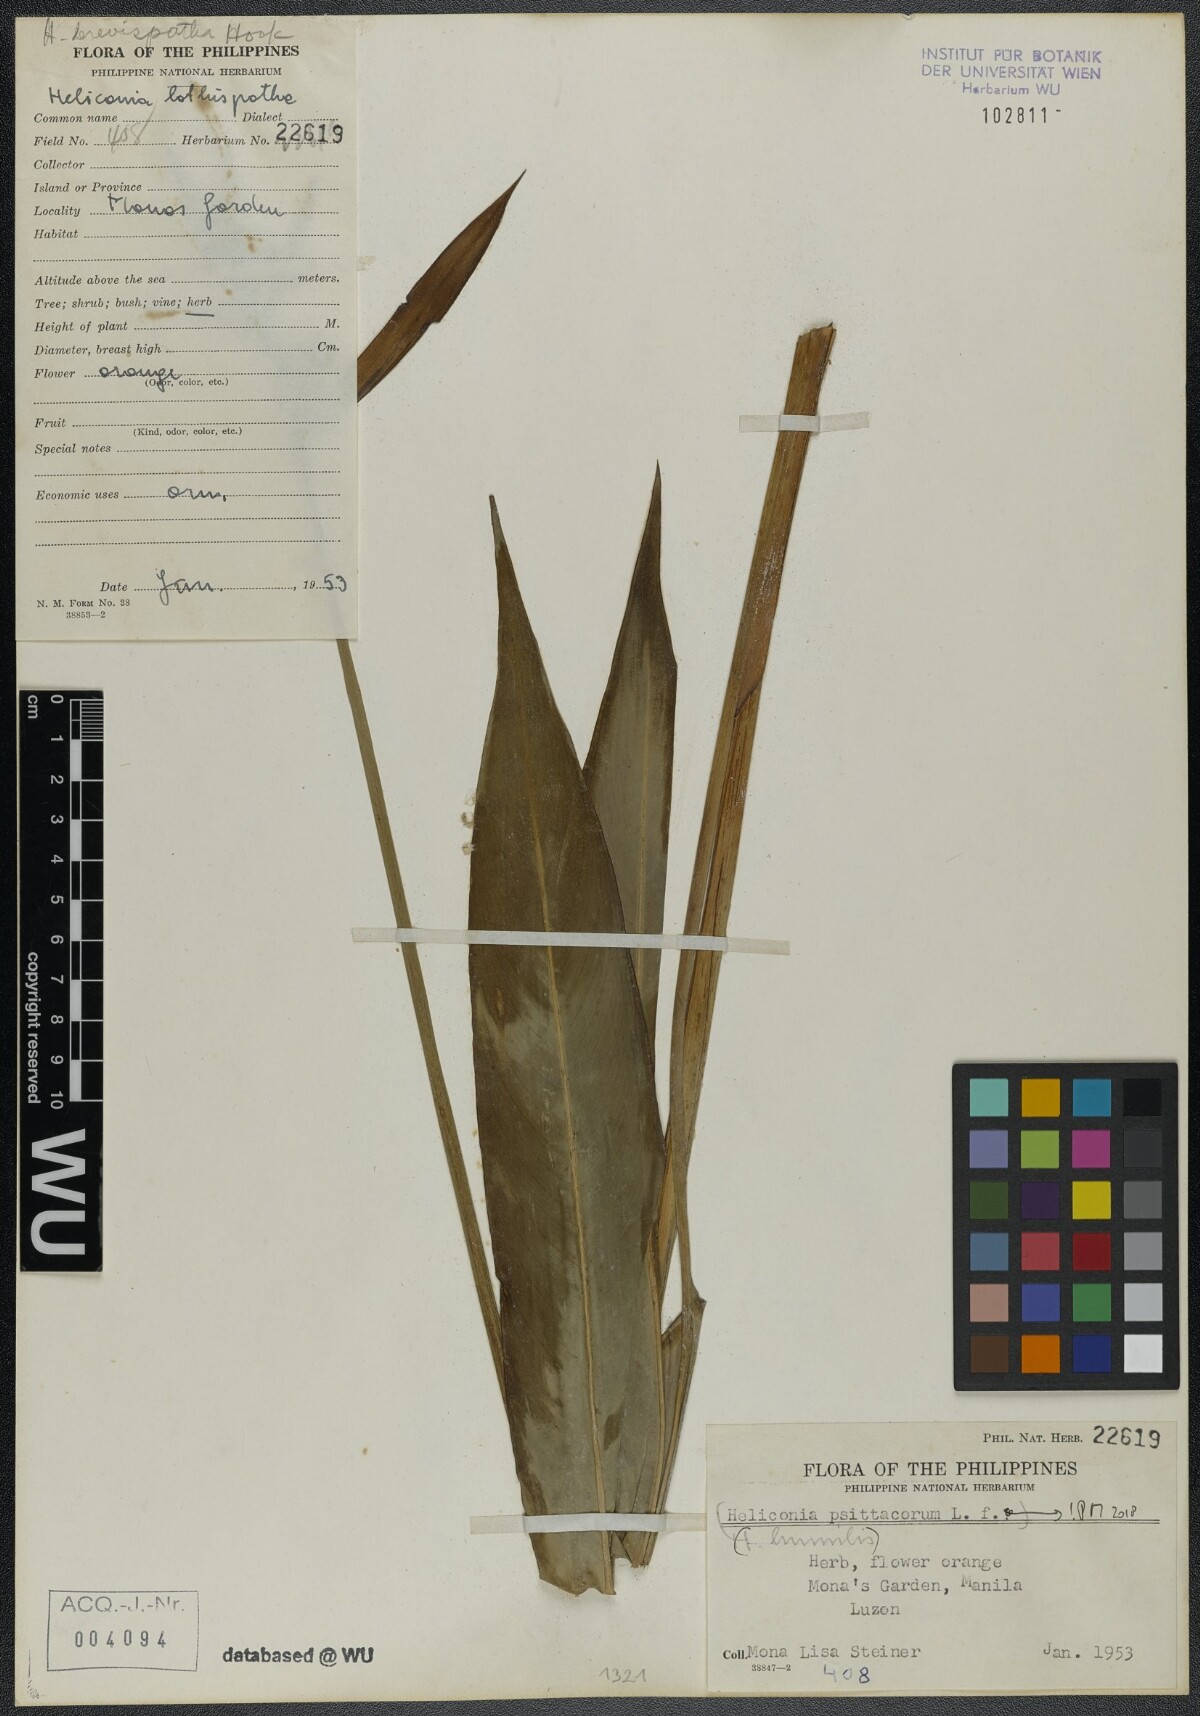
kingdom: Plantae
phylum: Tracheophyta
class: Liliopsida
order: Zingiberales
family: Heliconiaceae
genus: Heliconia
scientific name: Heliconia psittacorum
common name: Parrot's-flower
